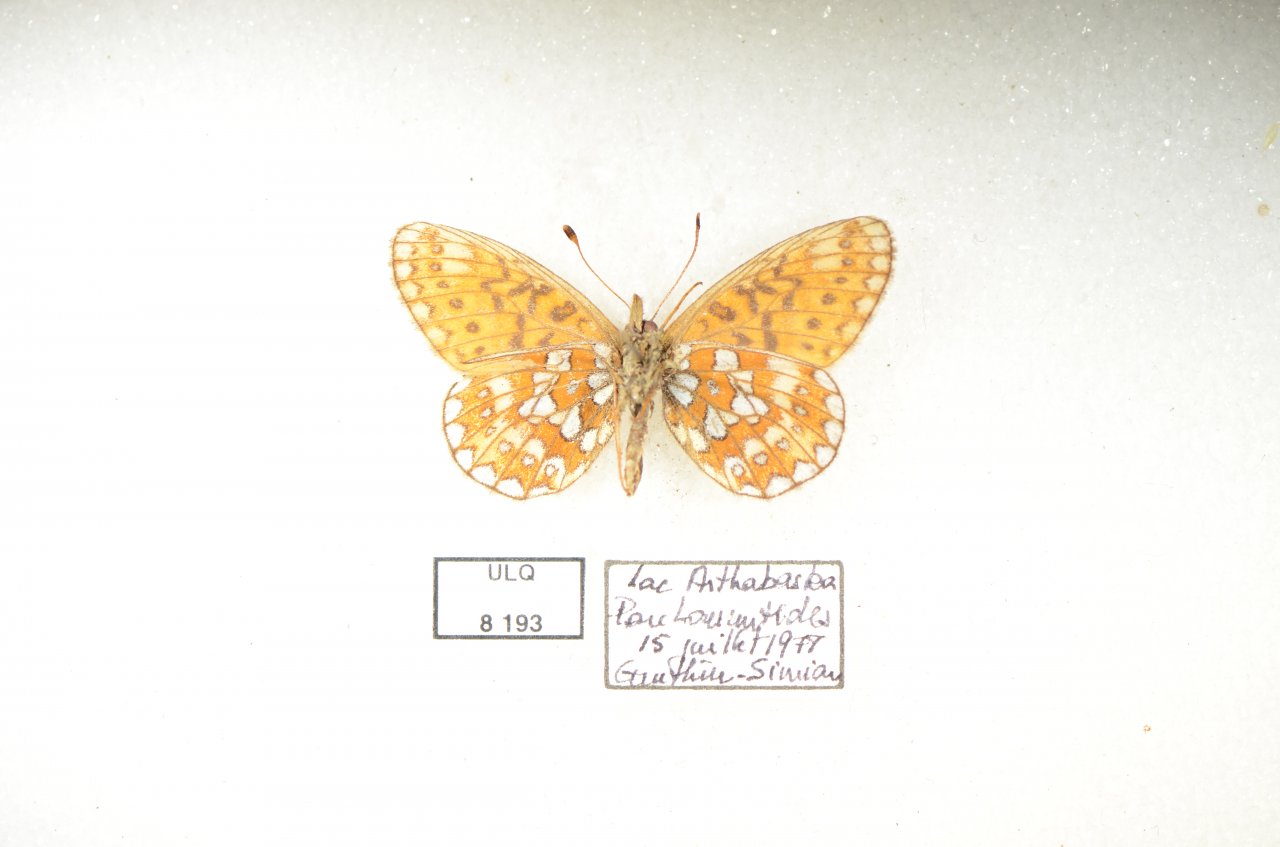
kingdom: Animalia
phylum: Arthropoda
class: Insecta
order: Lepidoptera
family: Nymphalidae
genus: Boloria
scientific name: Boloria eunomia
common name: Bog Fritillary
